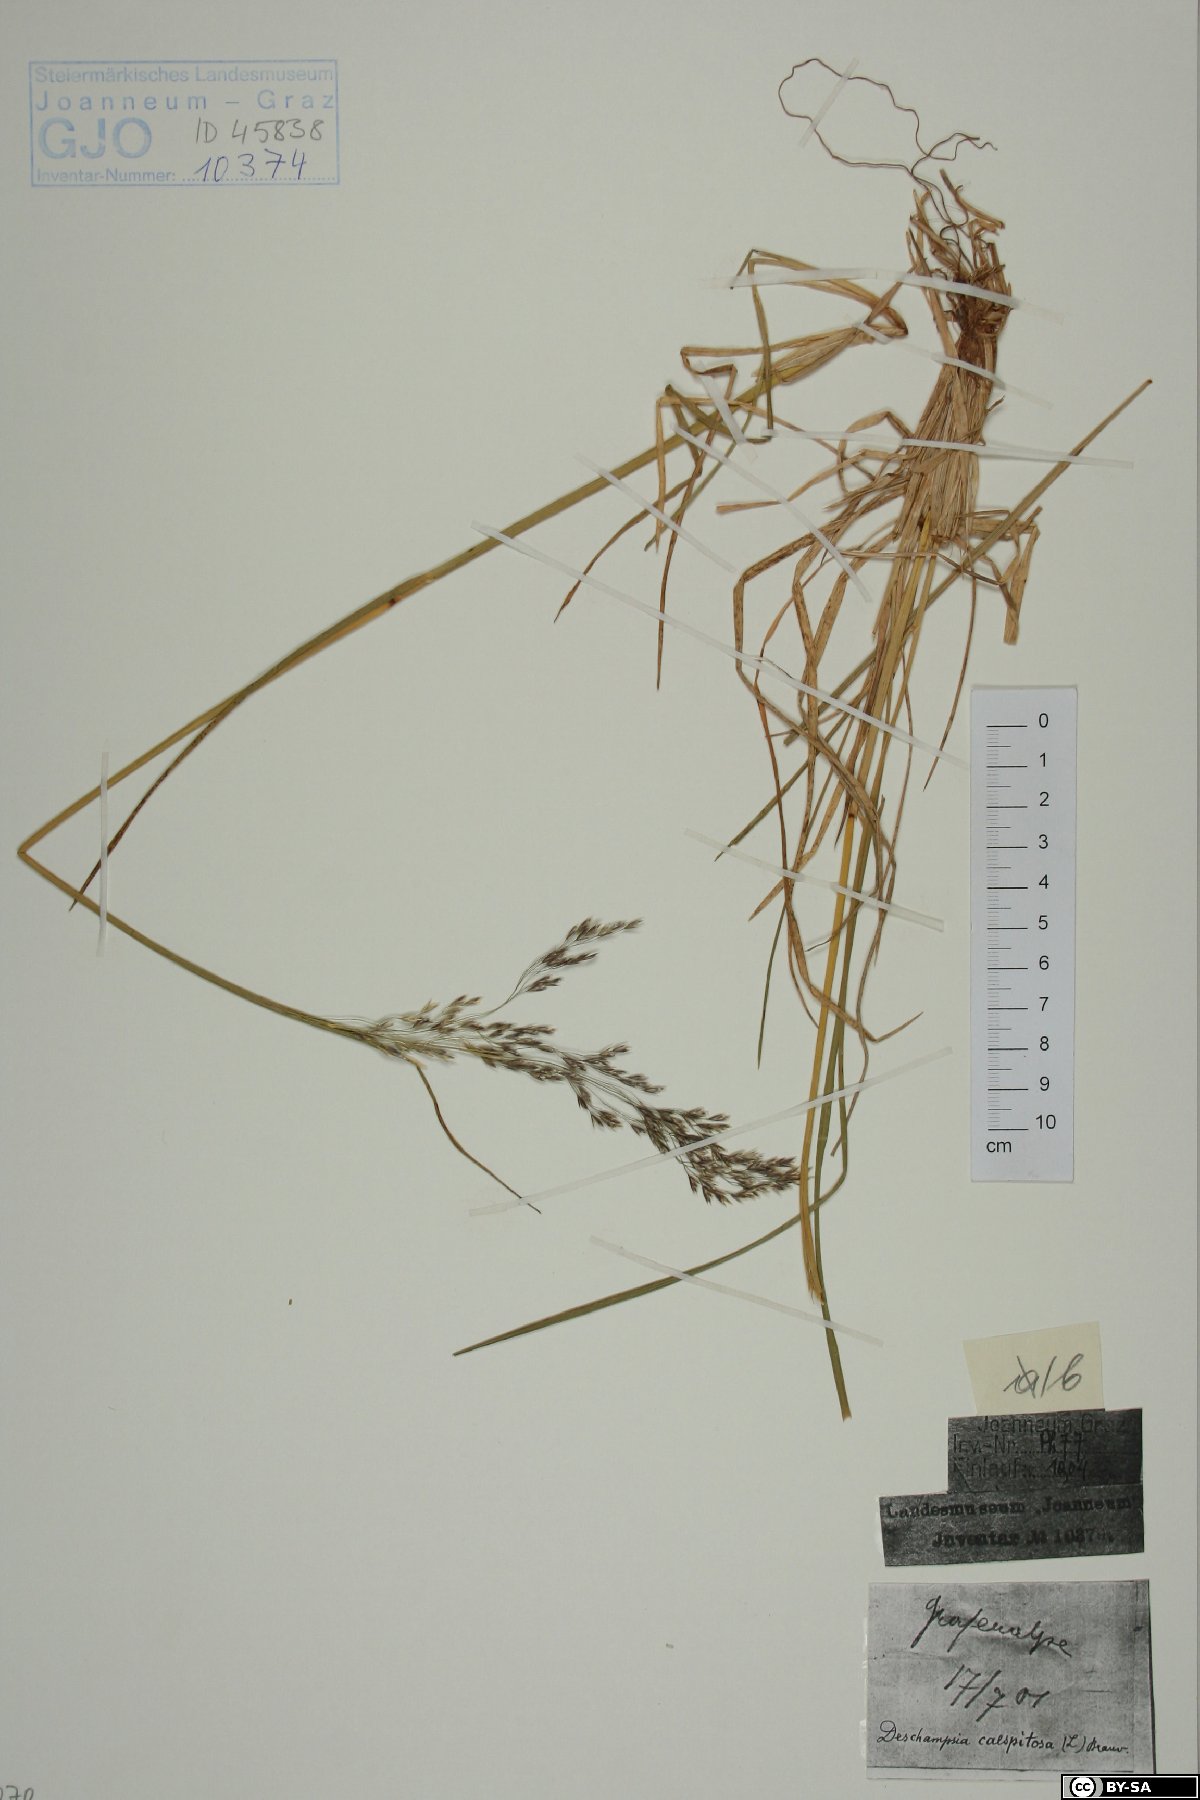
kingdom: Plantae
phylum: Tracheophyta
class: Liliopsida
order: Poales
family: Poaceae
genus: Deschampsia
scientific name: Deschampsia cespitosa
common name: Tufted hair-grass
